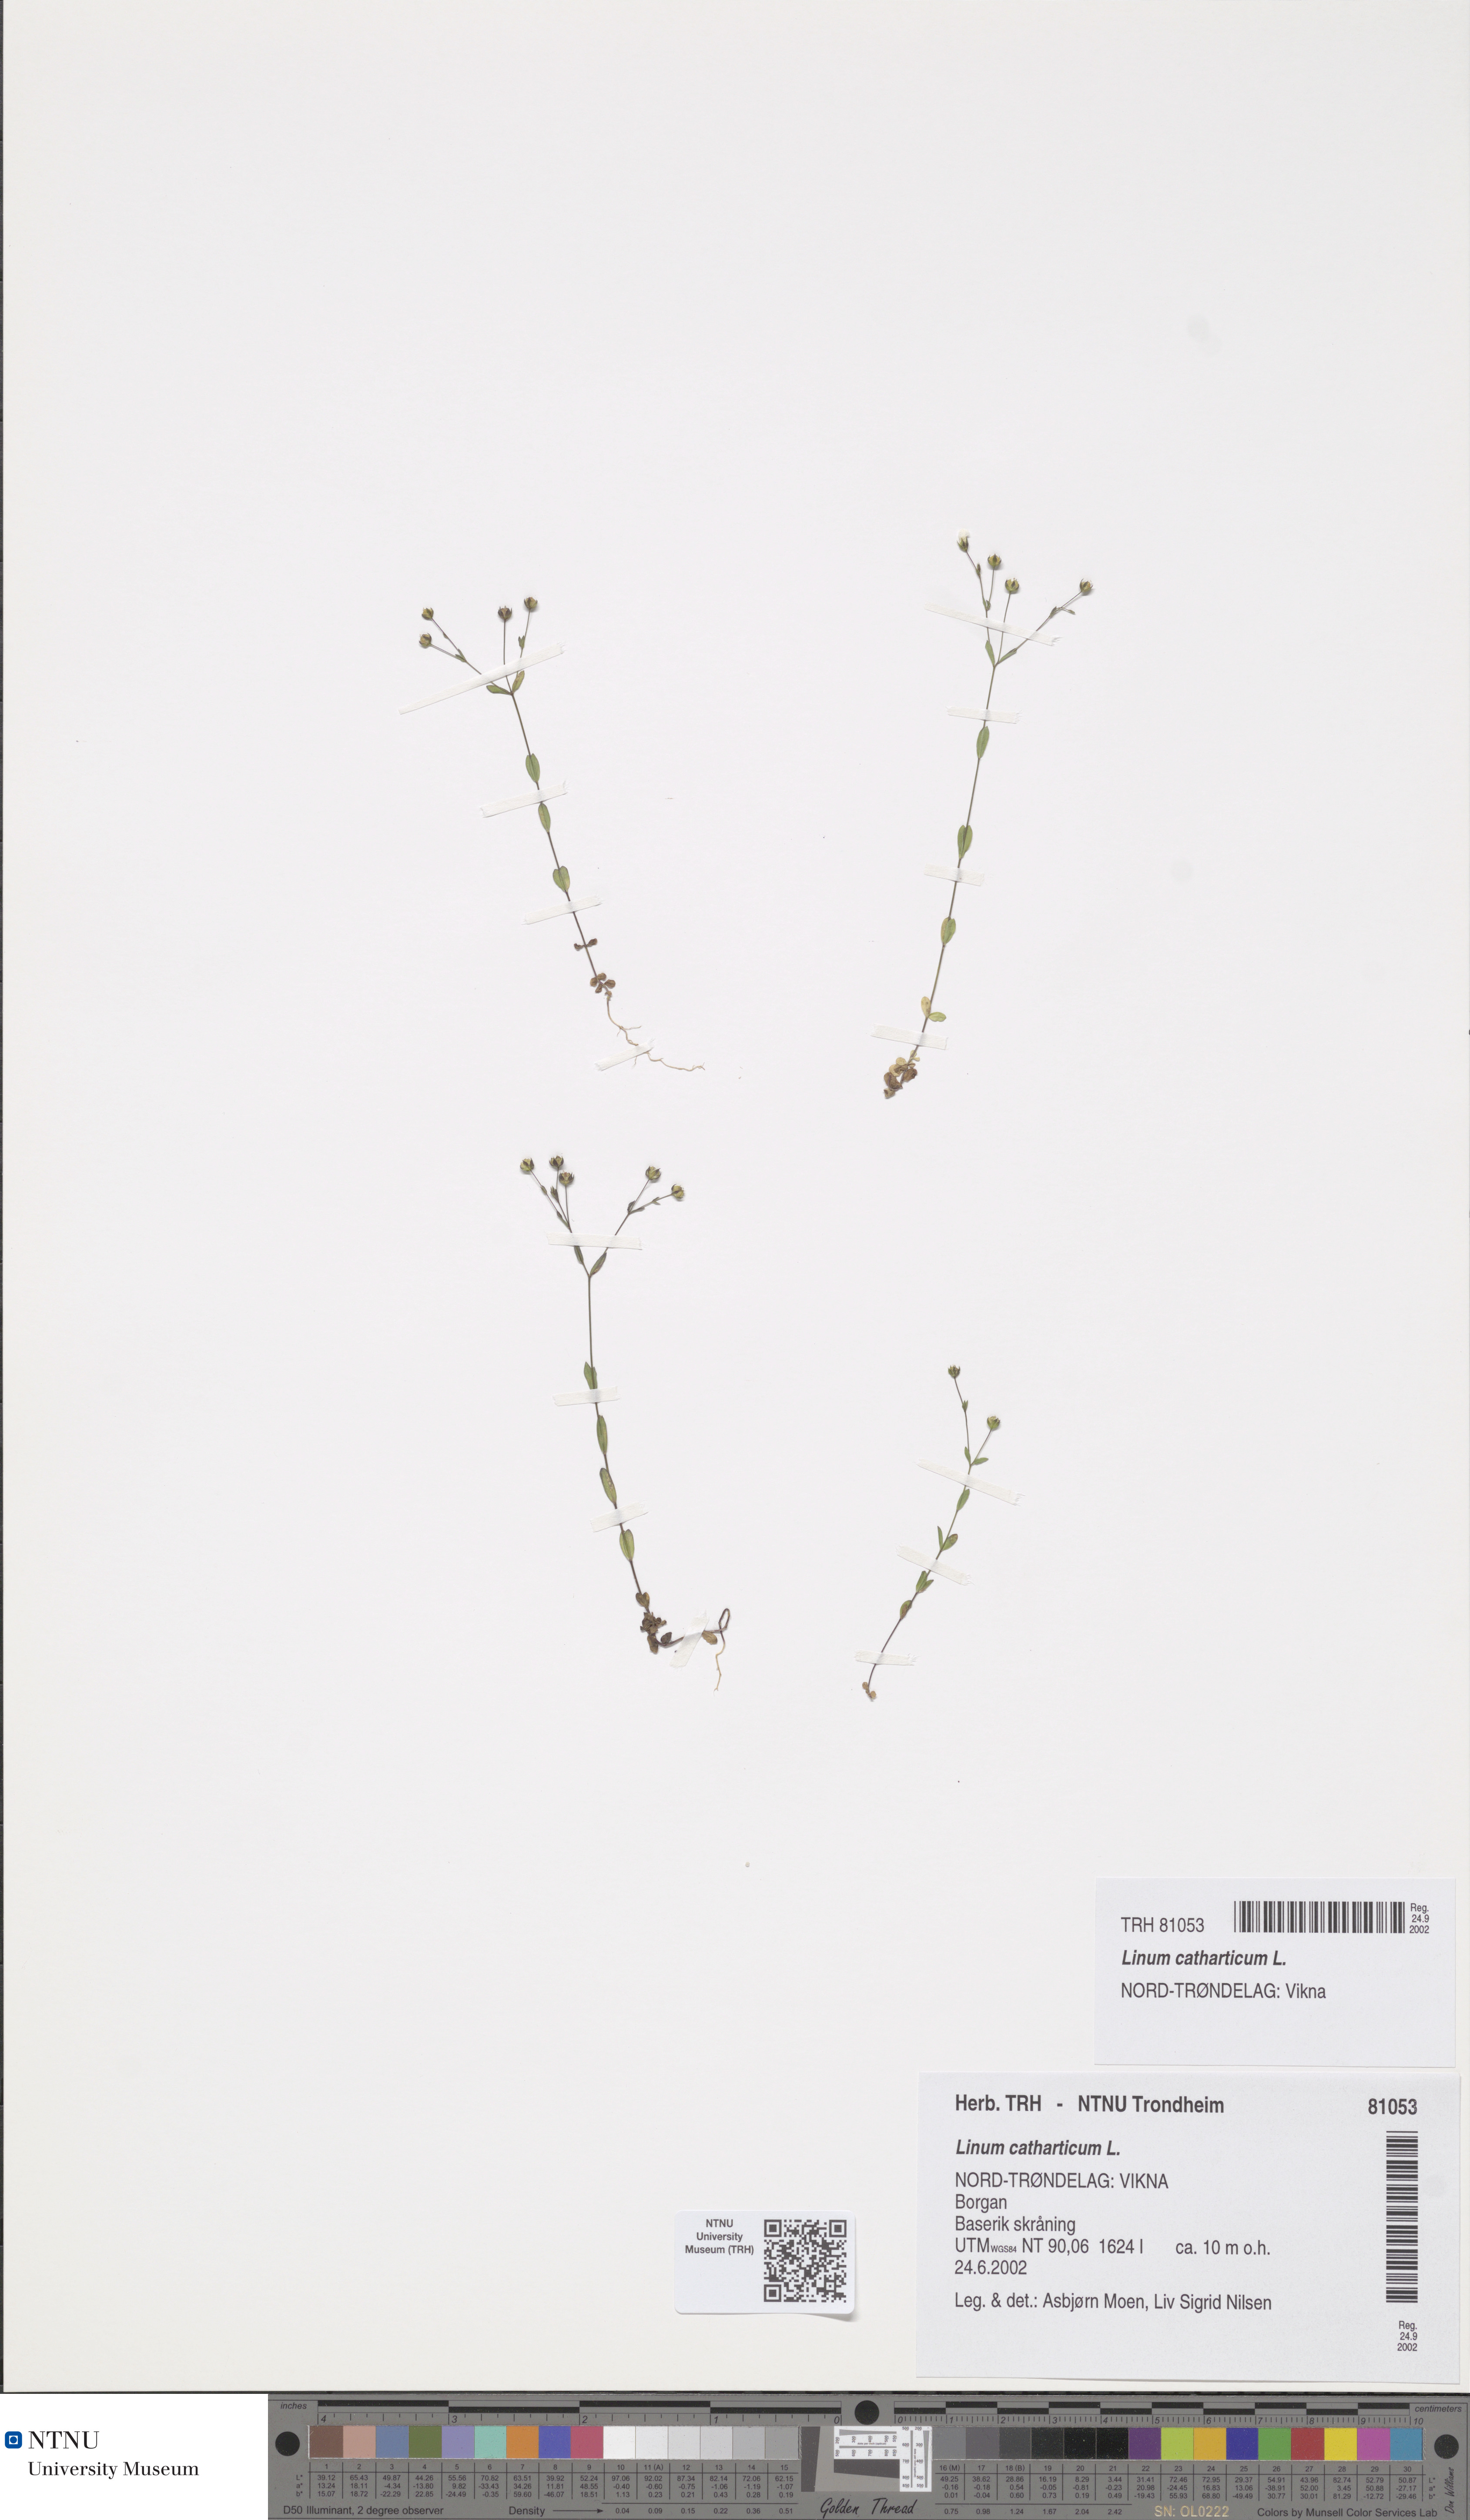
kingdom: Plantae
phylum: Tracheophyta
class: Magnoliopsida
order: Malpighiales
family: Linaceae
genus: Linum
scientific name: Linum catharticum
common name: Fairy flax
